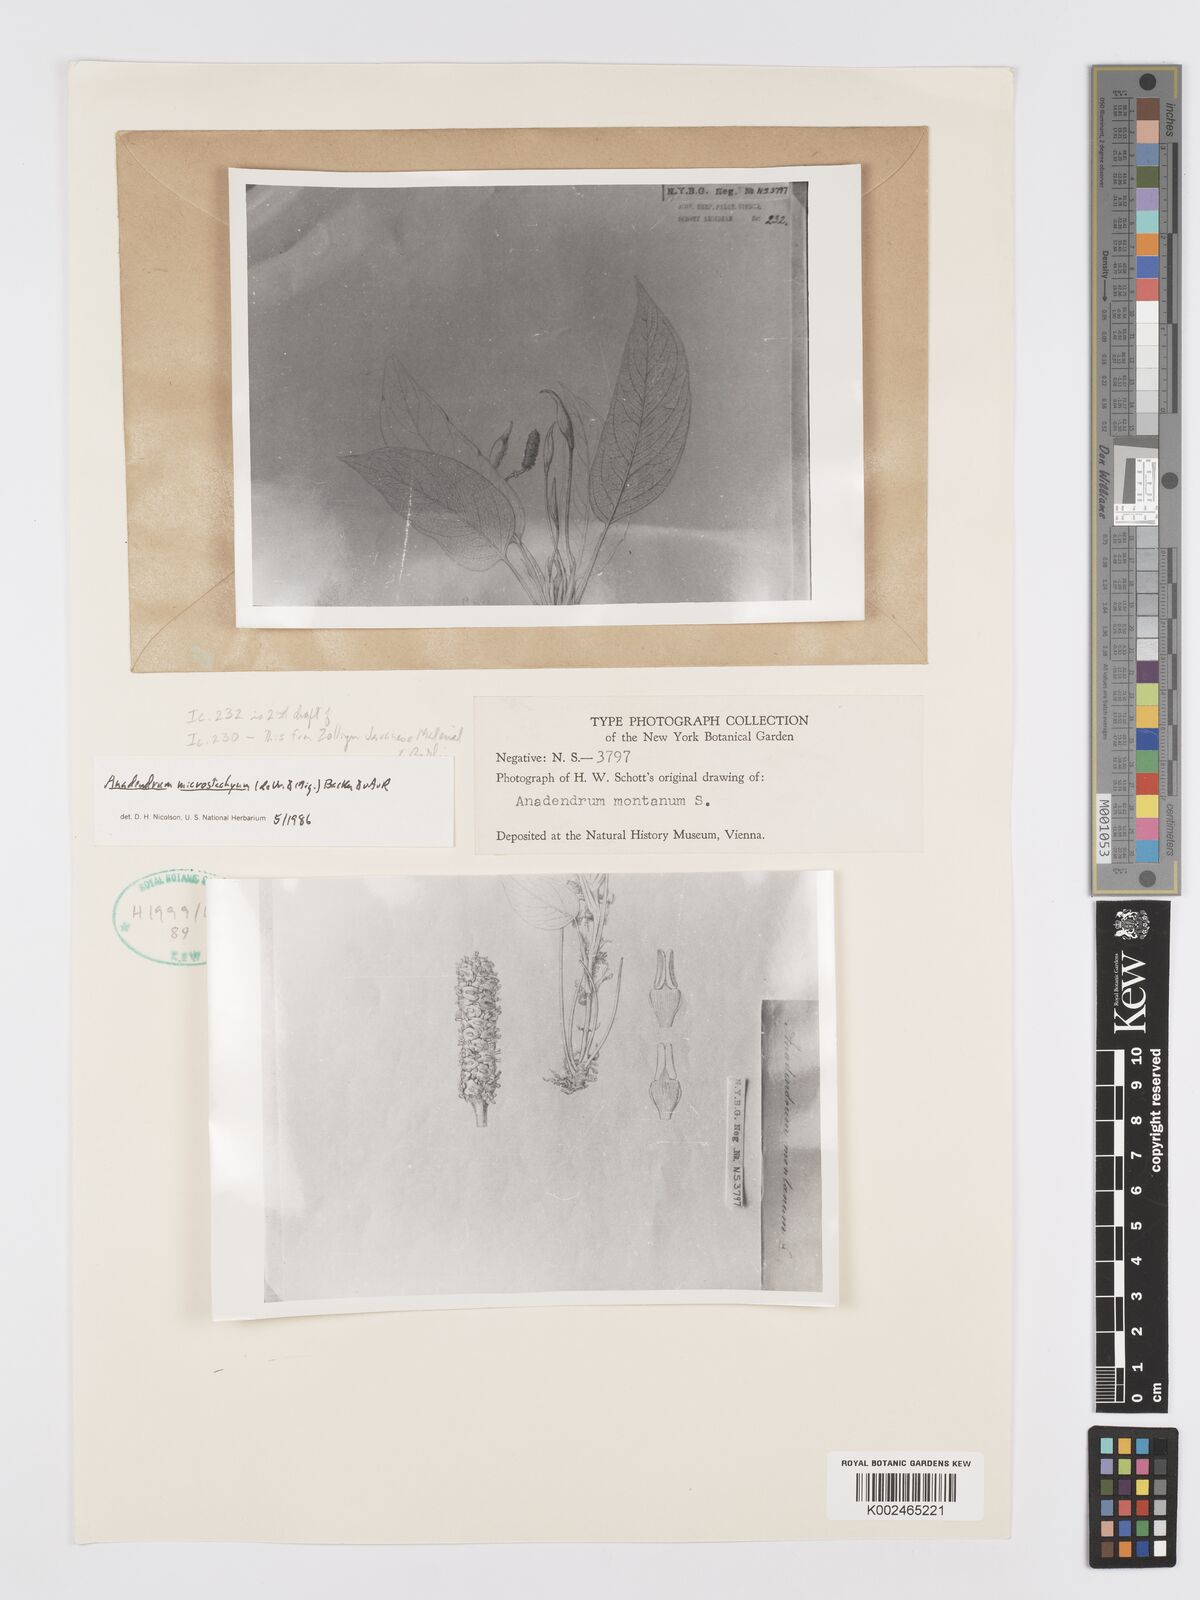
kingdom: Plantae
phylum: Tracheophyta
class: Liliopsida
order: Alismatales
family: Araceae
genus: Anadendrum
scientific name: Anadendrum microstachyum
